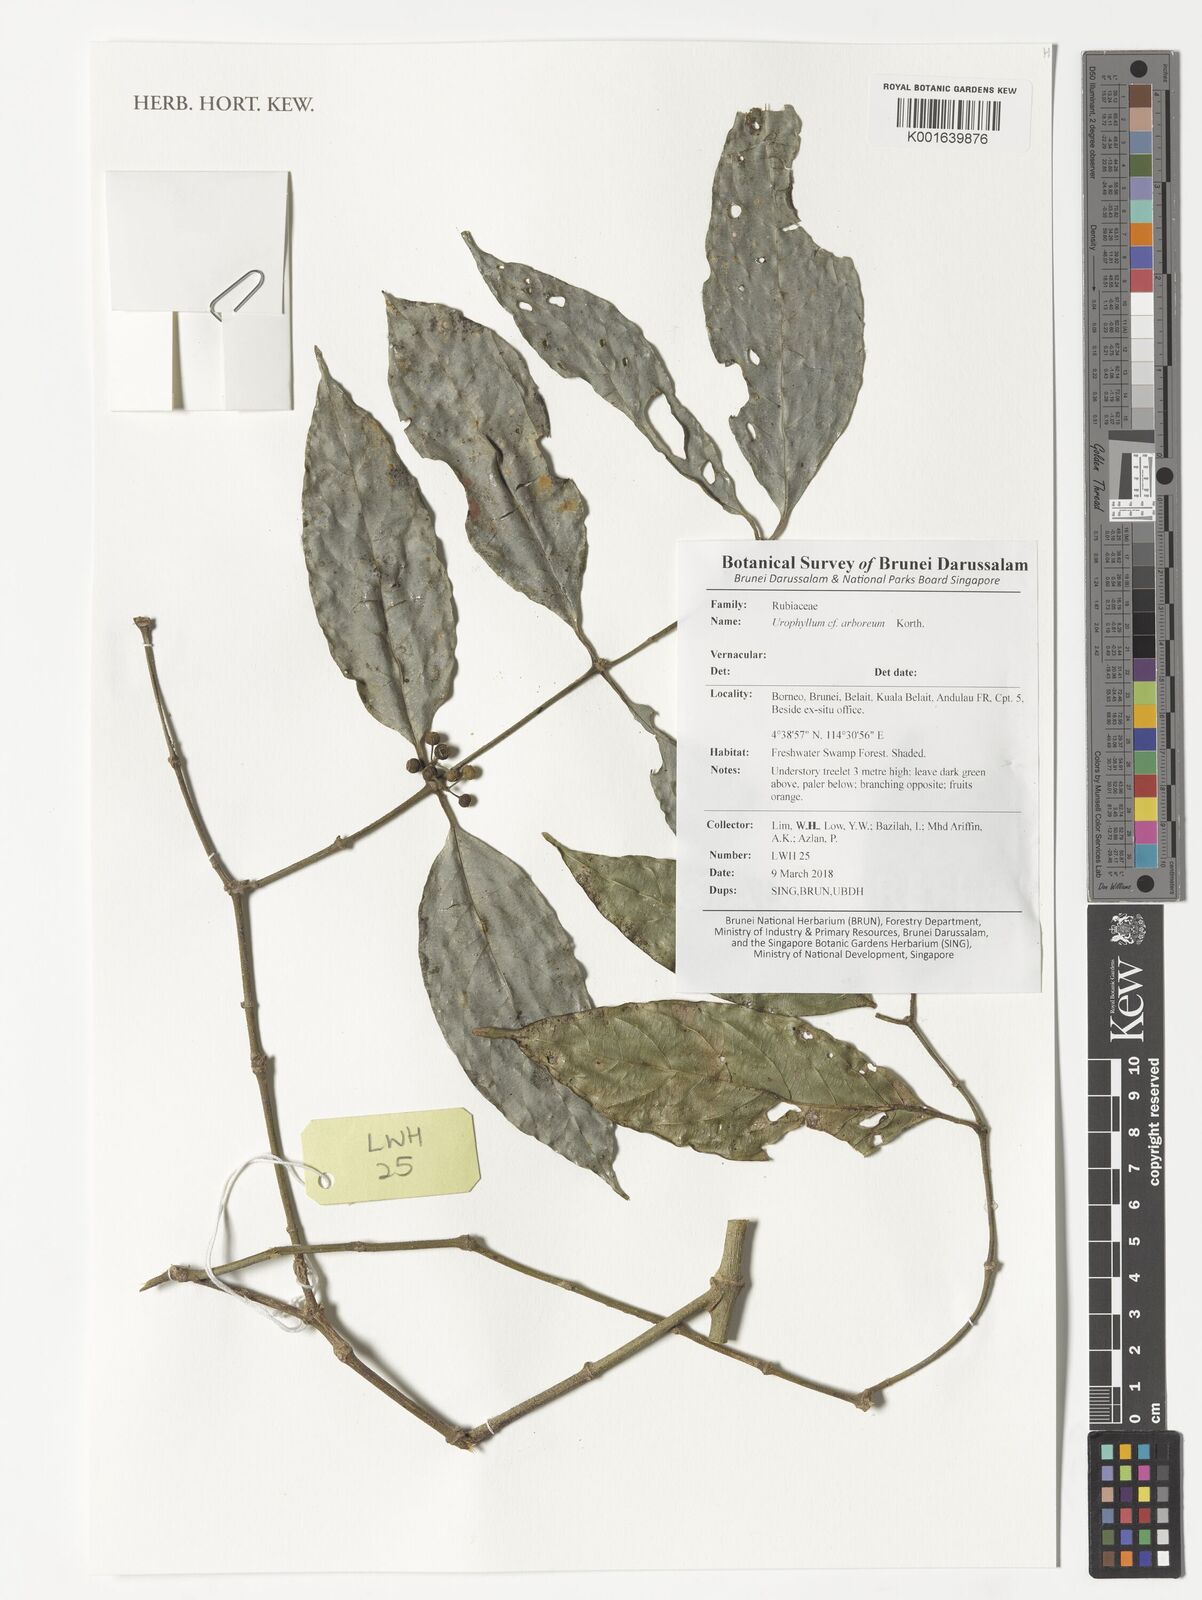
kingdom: Plantae
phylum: Tracheophyta
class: Magnoliopsida
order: Gentianales
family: Rubiaceae
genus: Urophyllum
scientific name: Urophyllum arboreum
